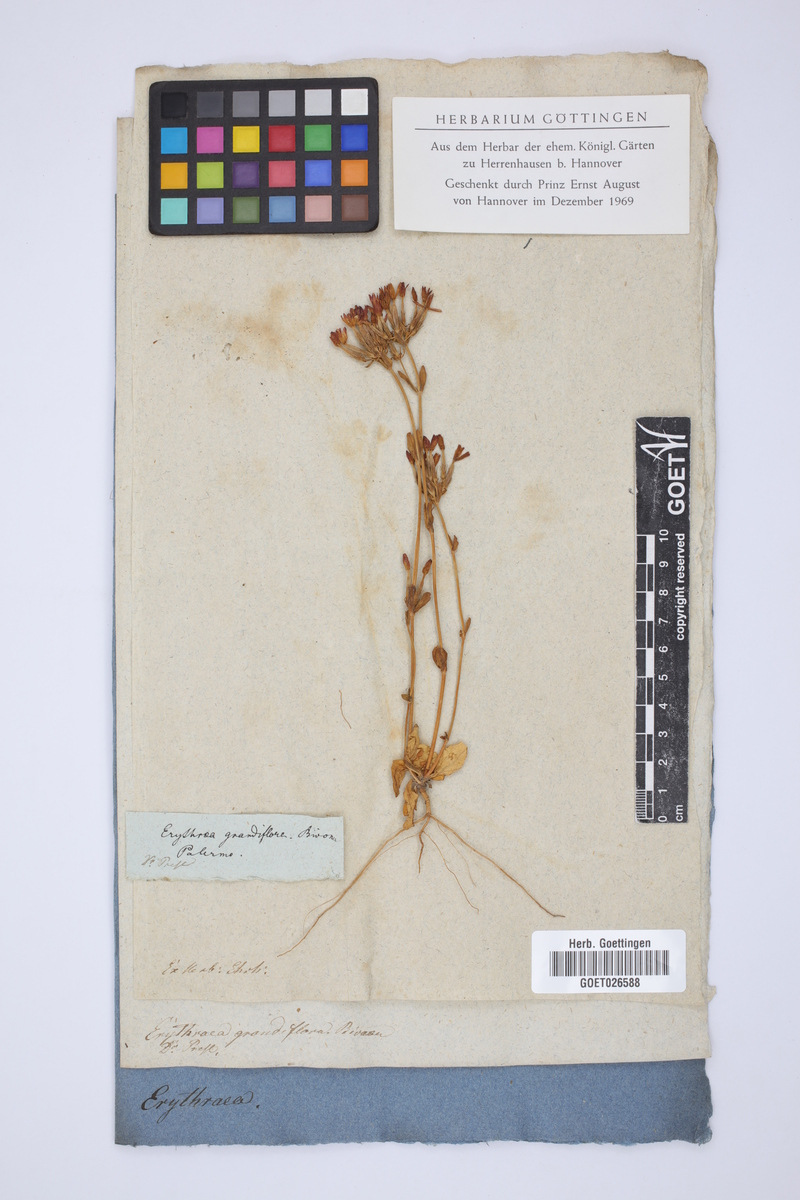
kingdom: Plantae
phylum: Tracheophyta
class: Magnoliopsida
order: Gentianales
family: Gentianaceae
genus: Centaurium
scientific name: Centaurium grandiflorum
